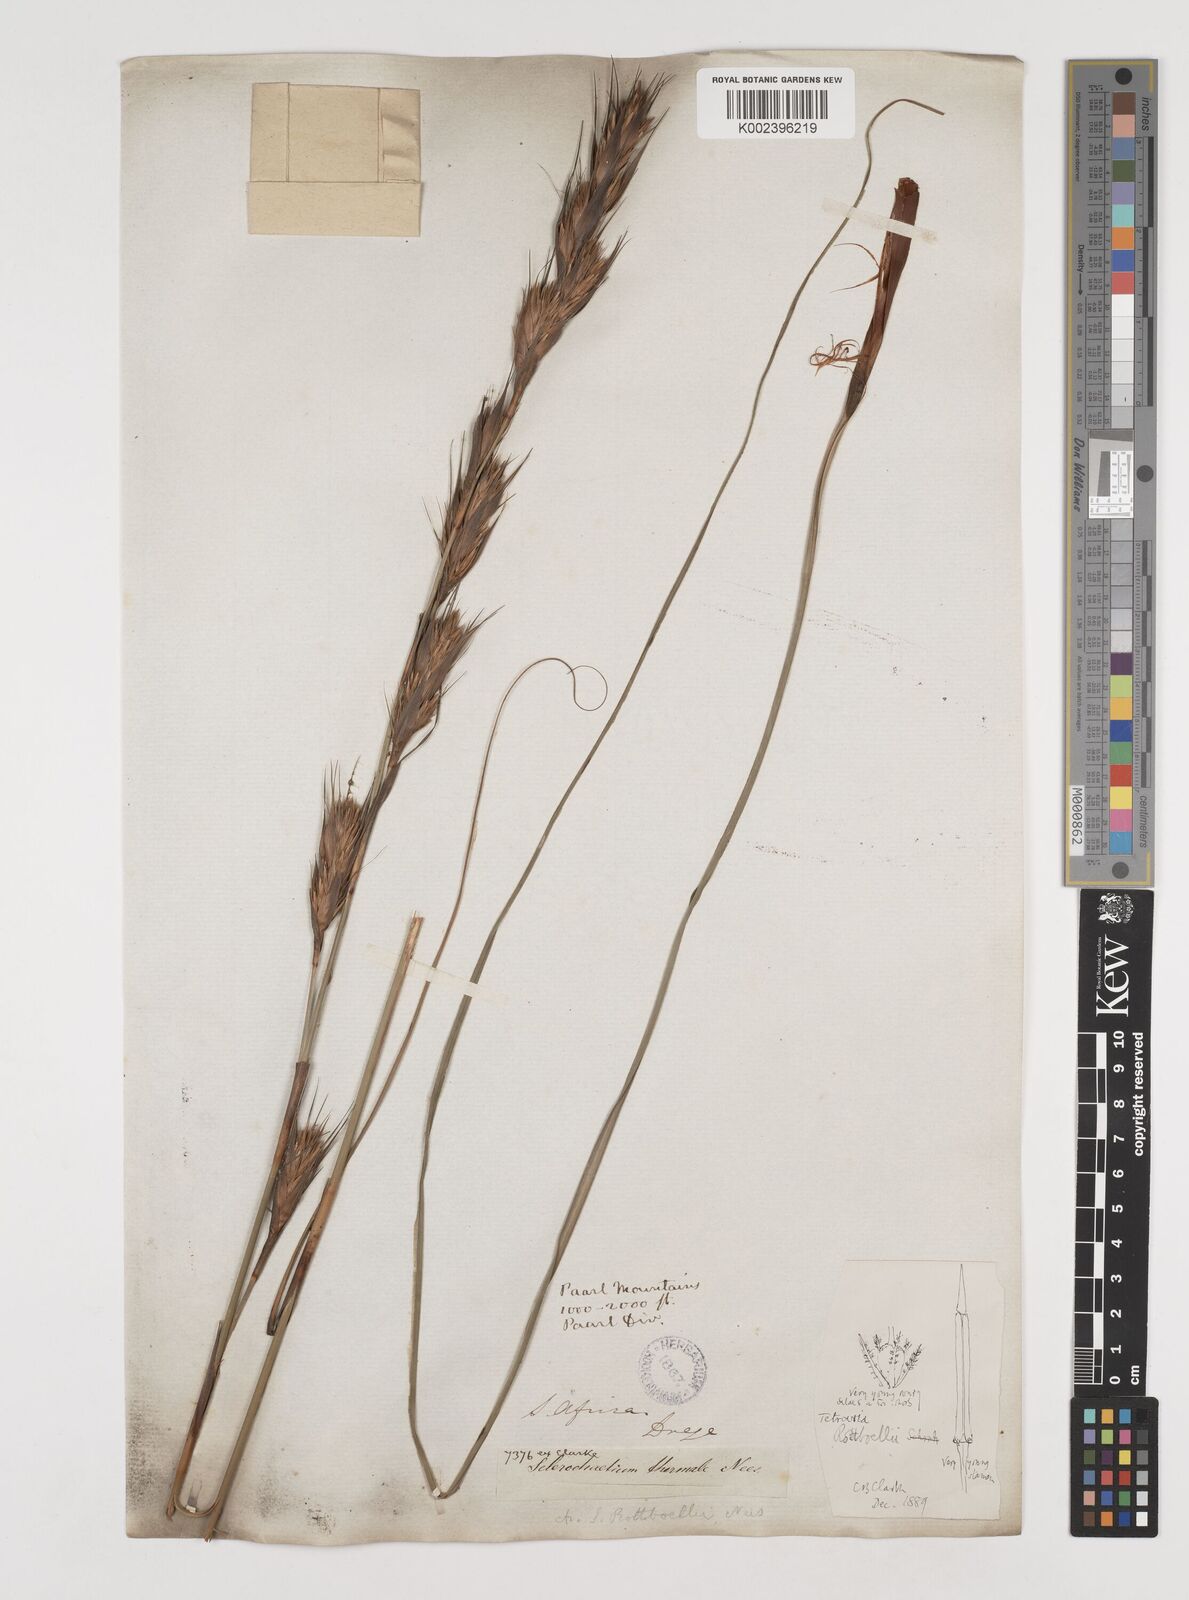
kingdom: Plantae
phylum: Tracheophyta
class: Liliopsida
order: Poales
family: Cyperaceae
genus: Tetraria
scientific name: Tetraria bromoides
